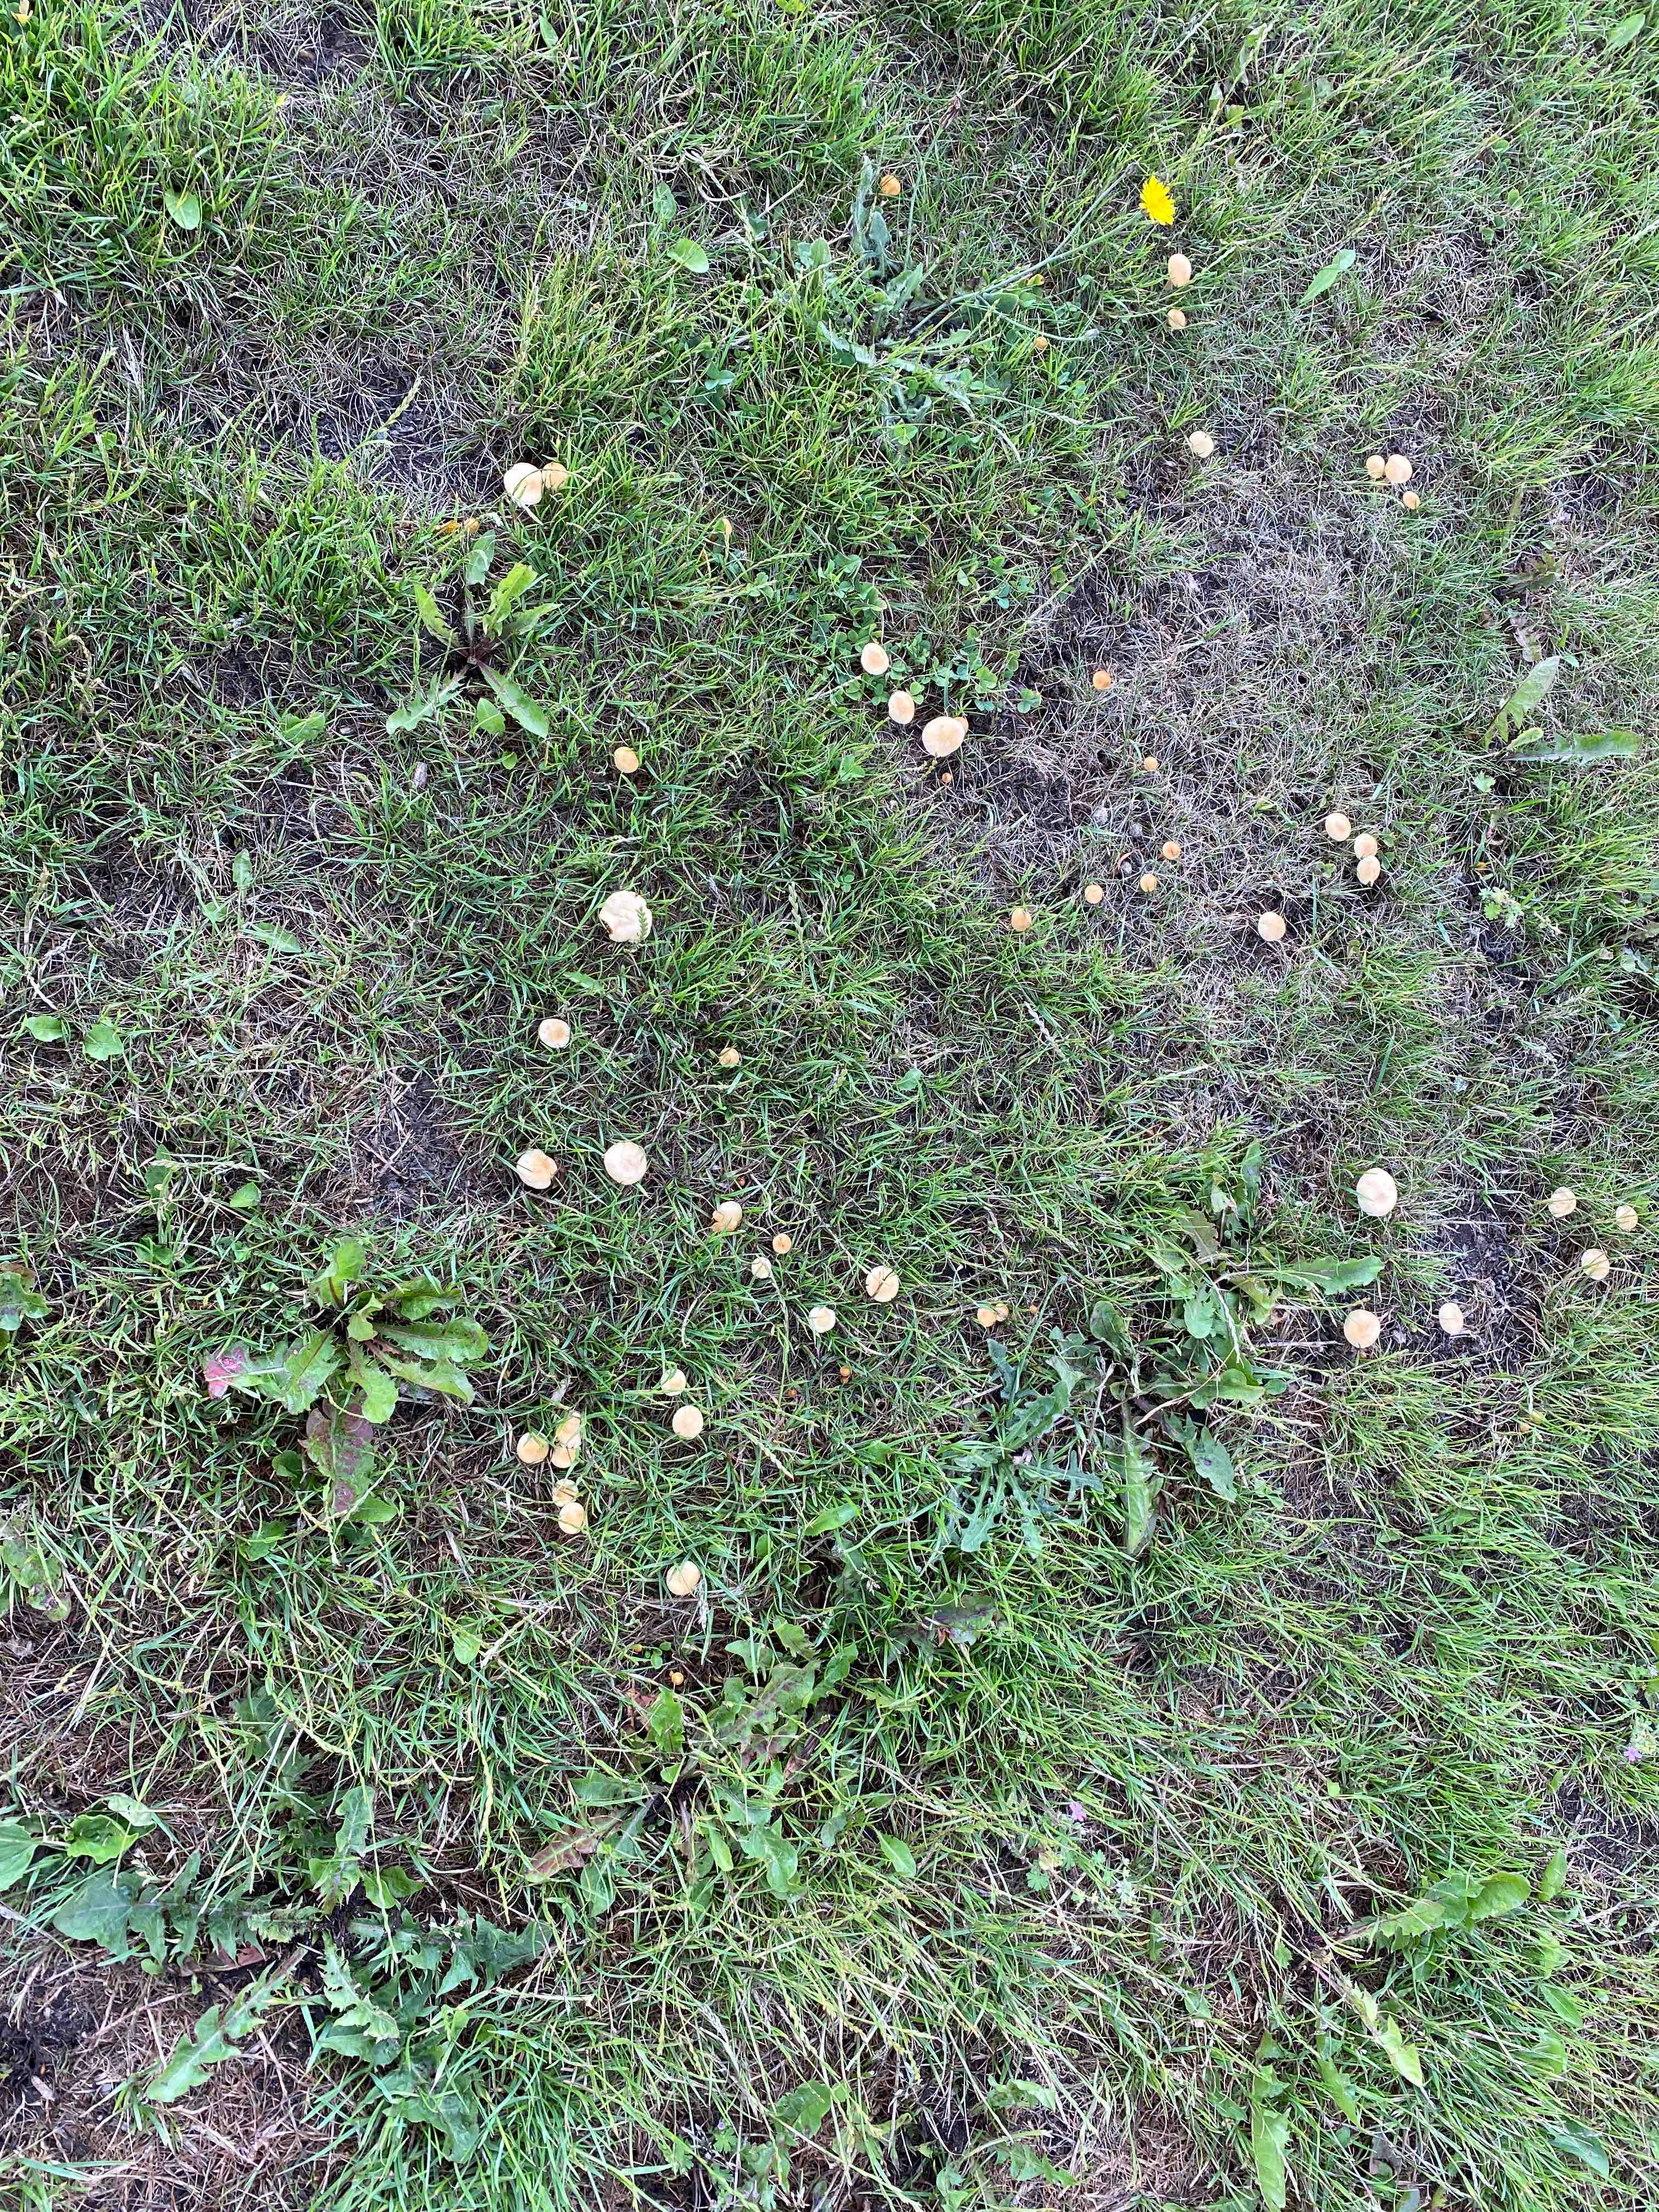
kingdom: Fungi
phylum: Basidiomycota
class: Agaricomycetes
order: Agaricales
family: Strophariaceae
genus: Agrocybe
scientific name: Agrocybe pediades
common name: almindelig agerhat
